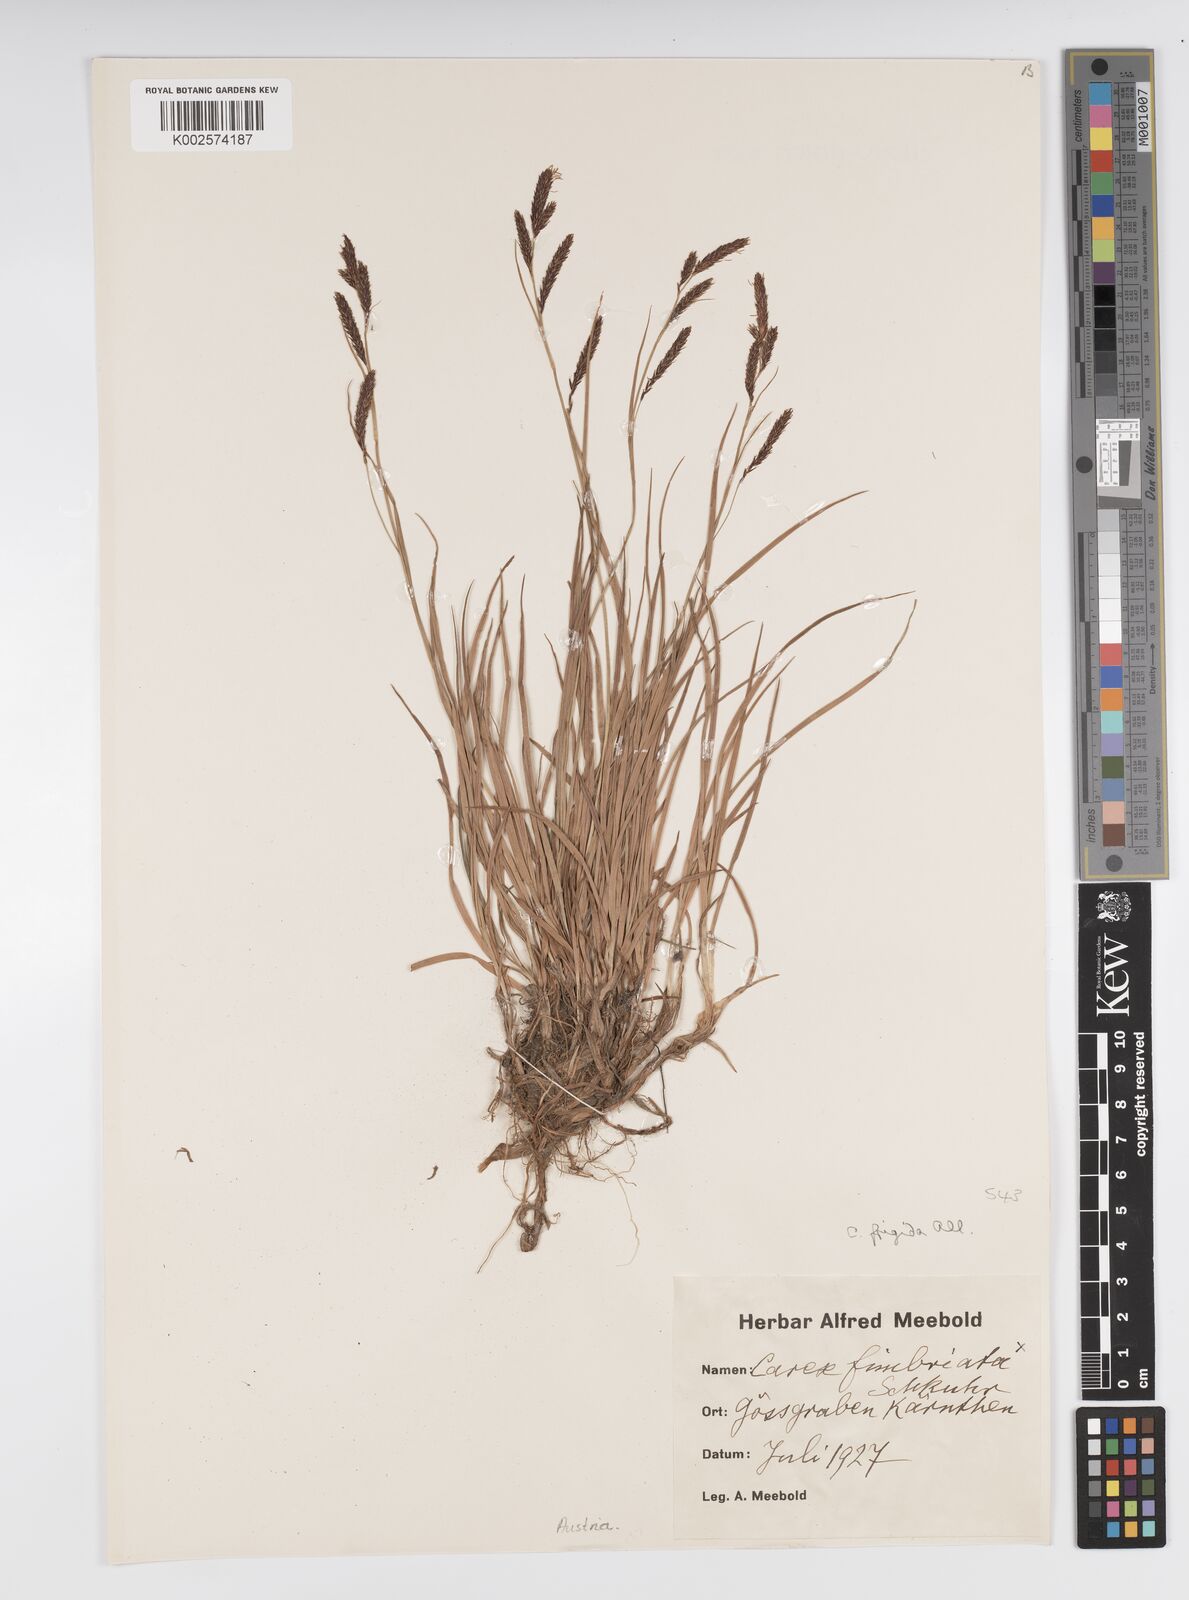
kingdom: Plantae
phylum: Tracheophyta
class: Liliopsida
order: Poales
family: Cyperaceae
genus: Carex
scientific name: Carex frigida
